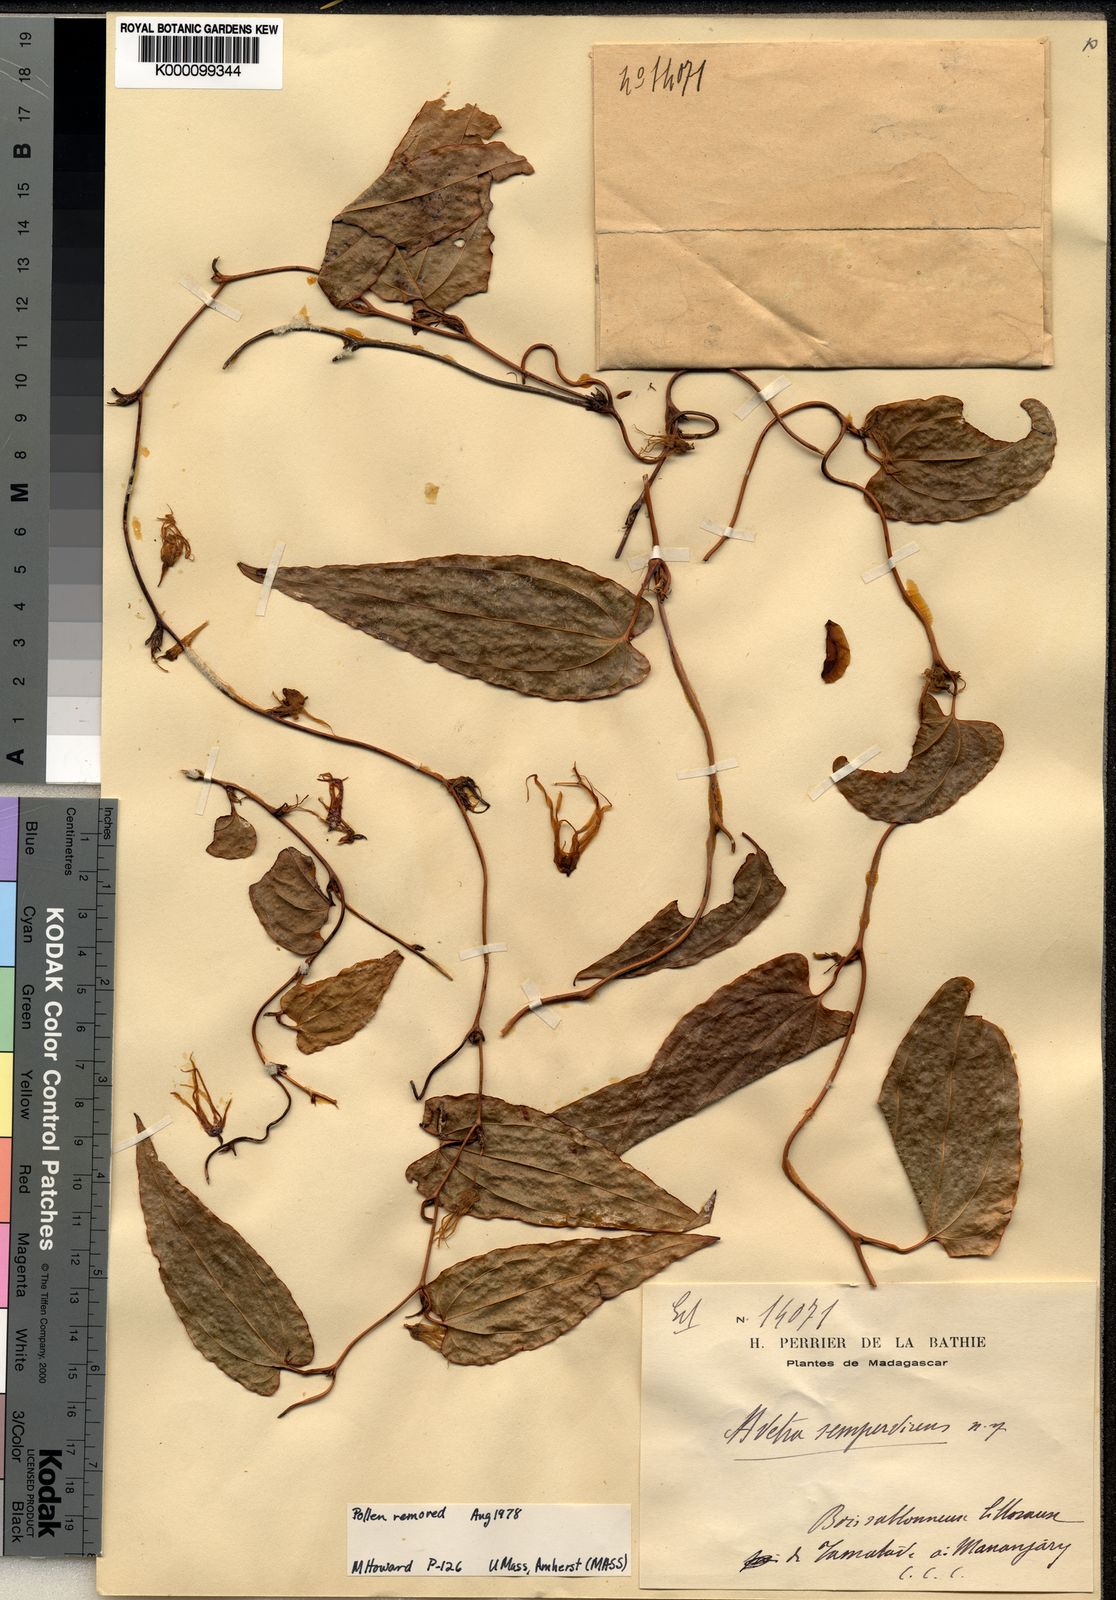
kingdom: Plantae
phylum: Tracheophyta
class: Liliopsida
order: Dioscoreales
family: Dioscoreaceae
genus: Trichopus
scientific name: Trichopus sempervirens
